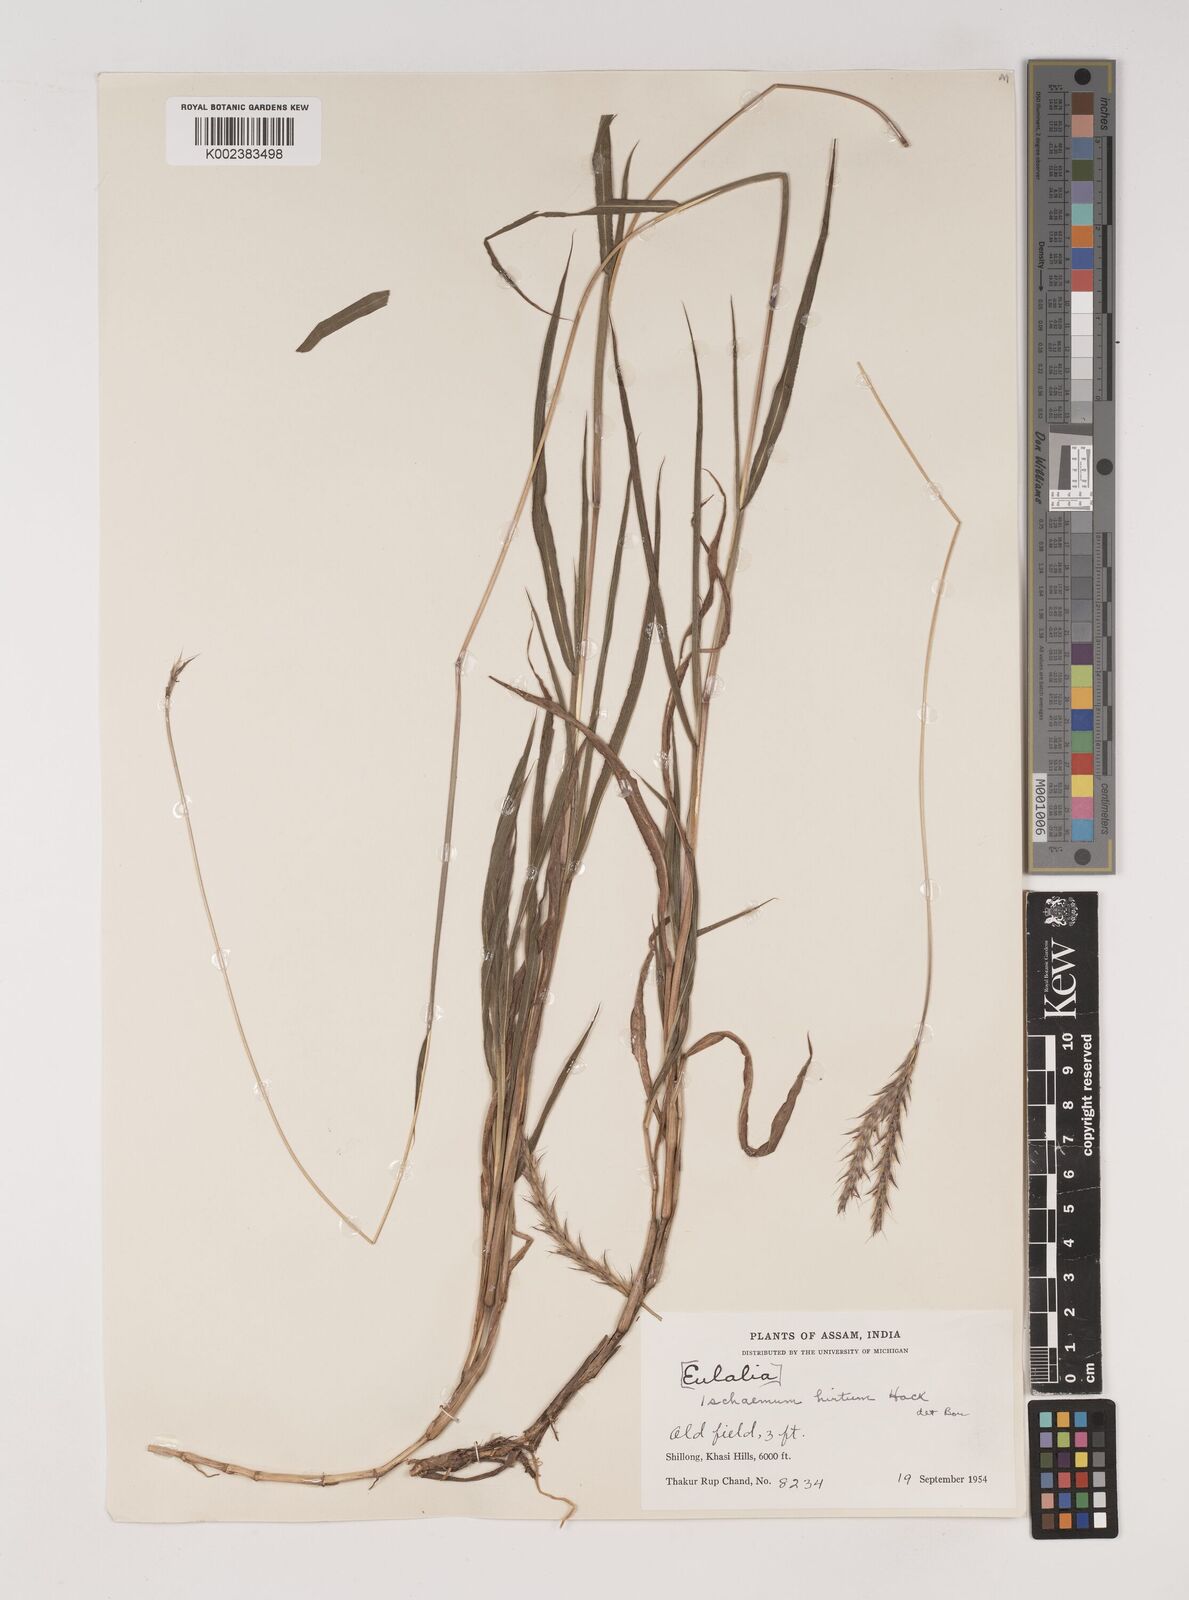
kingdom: Plantae
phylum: Tracheophyta
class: Liliopsida
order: Poales
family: Poaceae
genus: Ischaemum
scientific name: Ischaemum
